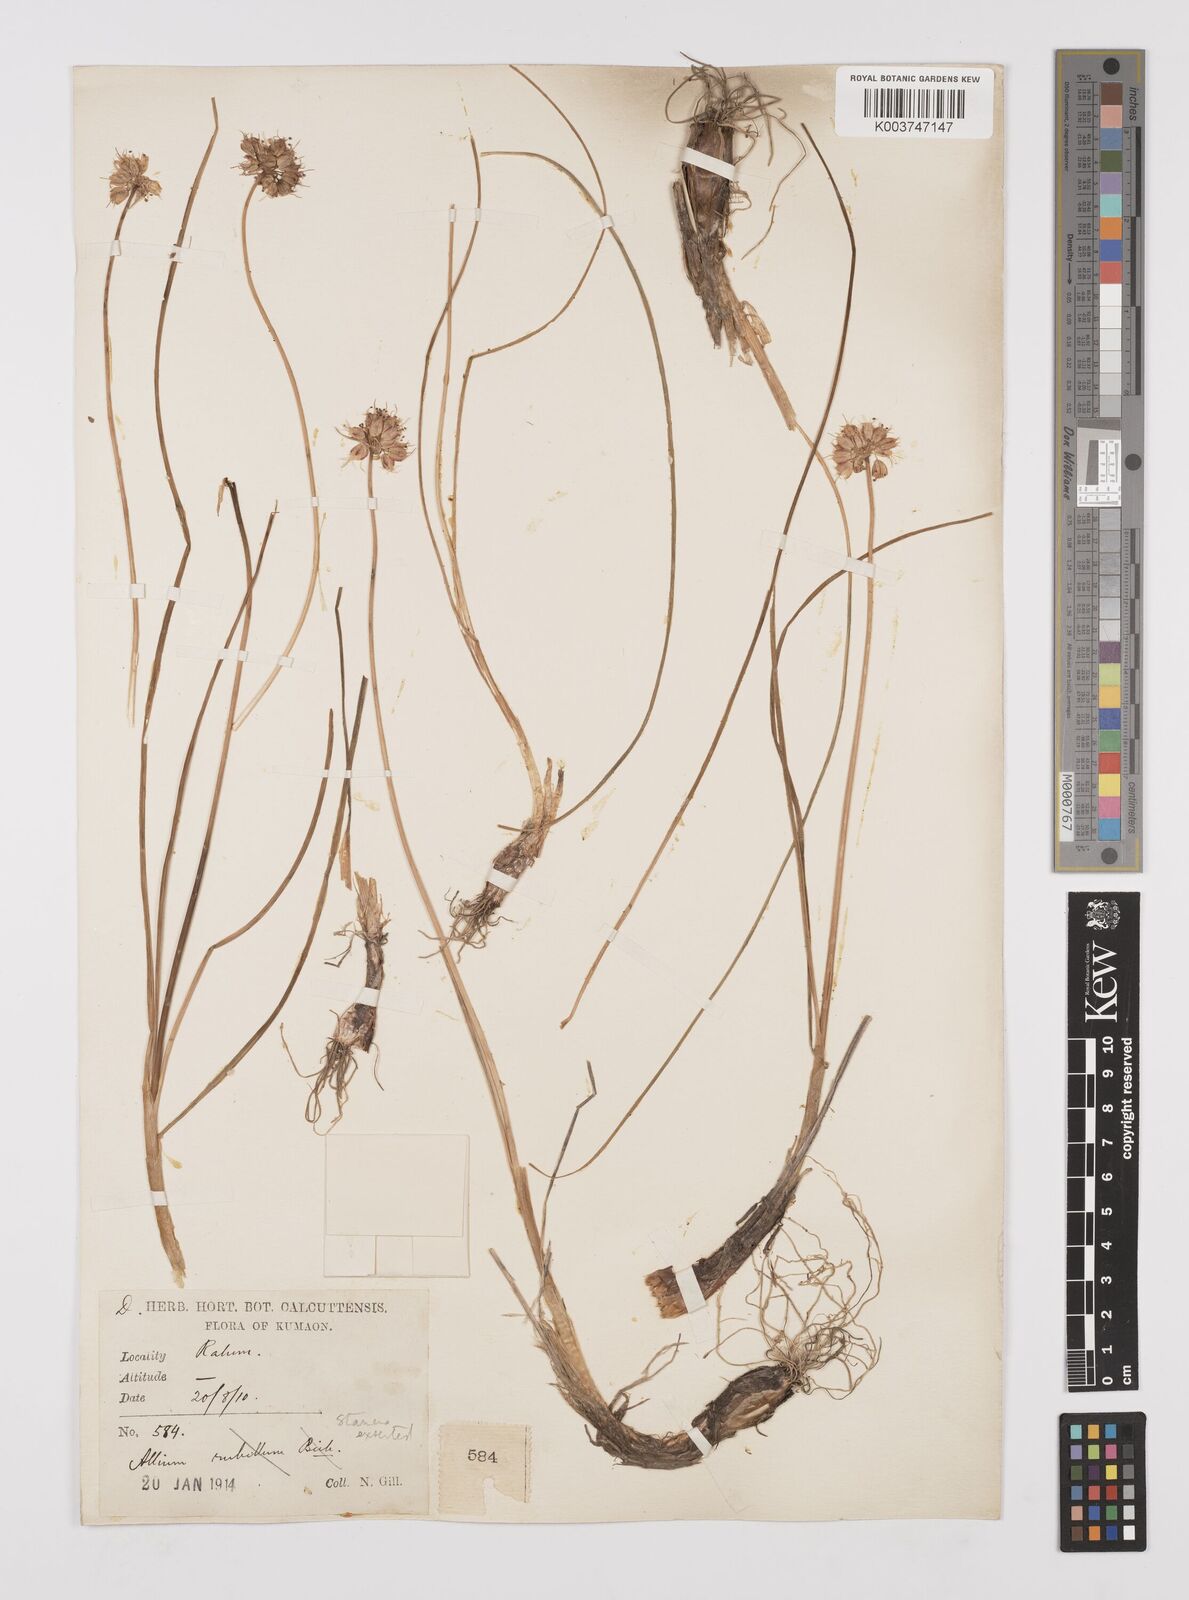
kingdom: Plantae
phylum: Tracheophyta
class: Liliopsida
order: Asparagales
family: Amaryllidaceae
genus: Allium
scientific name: Allium stracheyi
